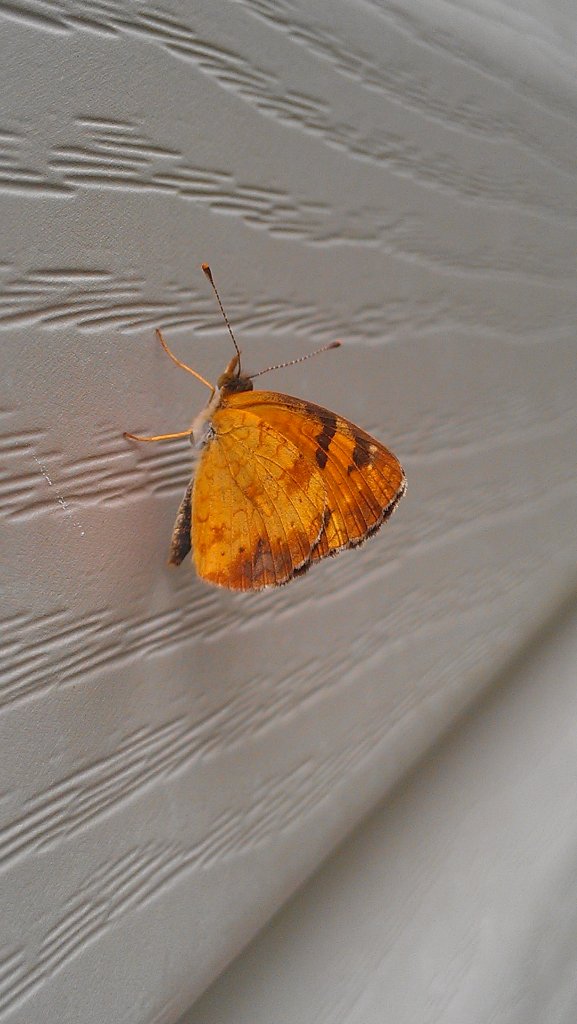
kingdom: Animalia
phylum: Arthropoda
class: Insecta
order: Lepidoptera
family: Nymphalidae
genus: Phyciodes
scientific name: Phyciodes tharos
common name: Northern Crescent
